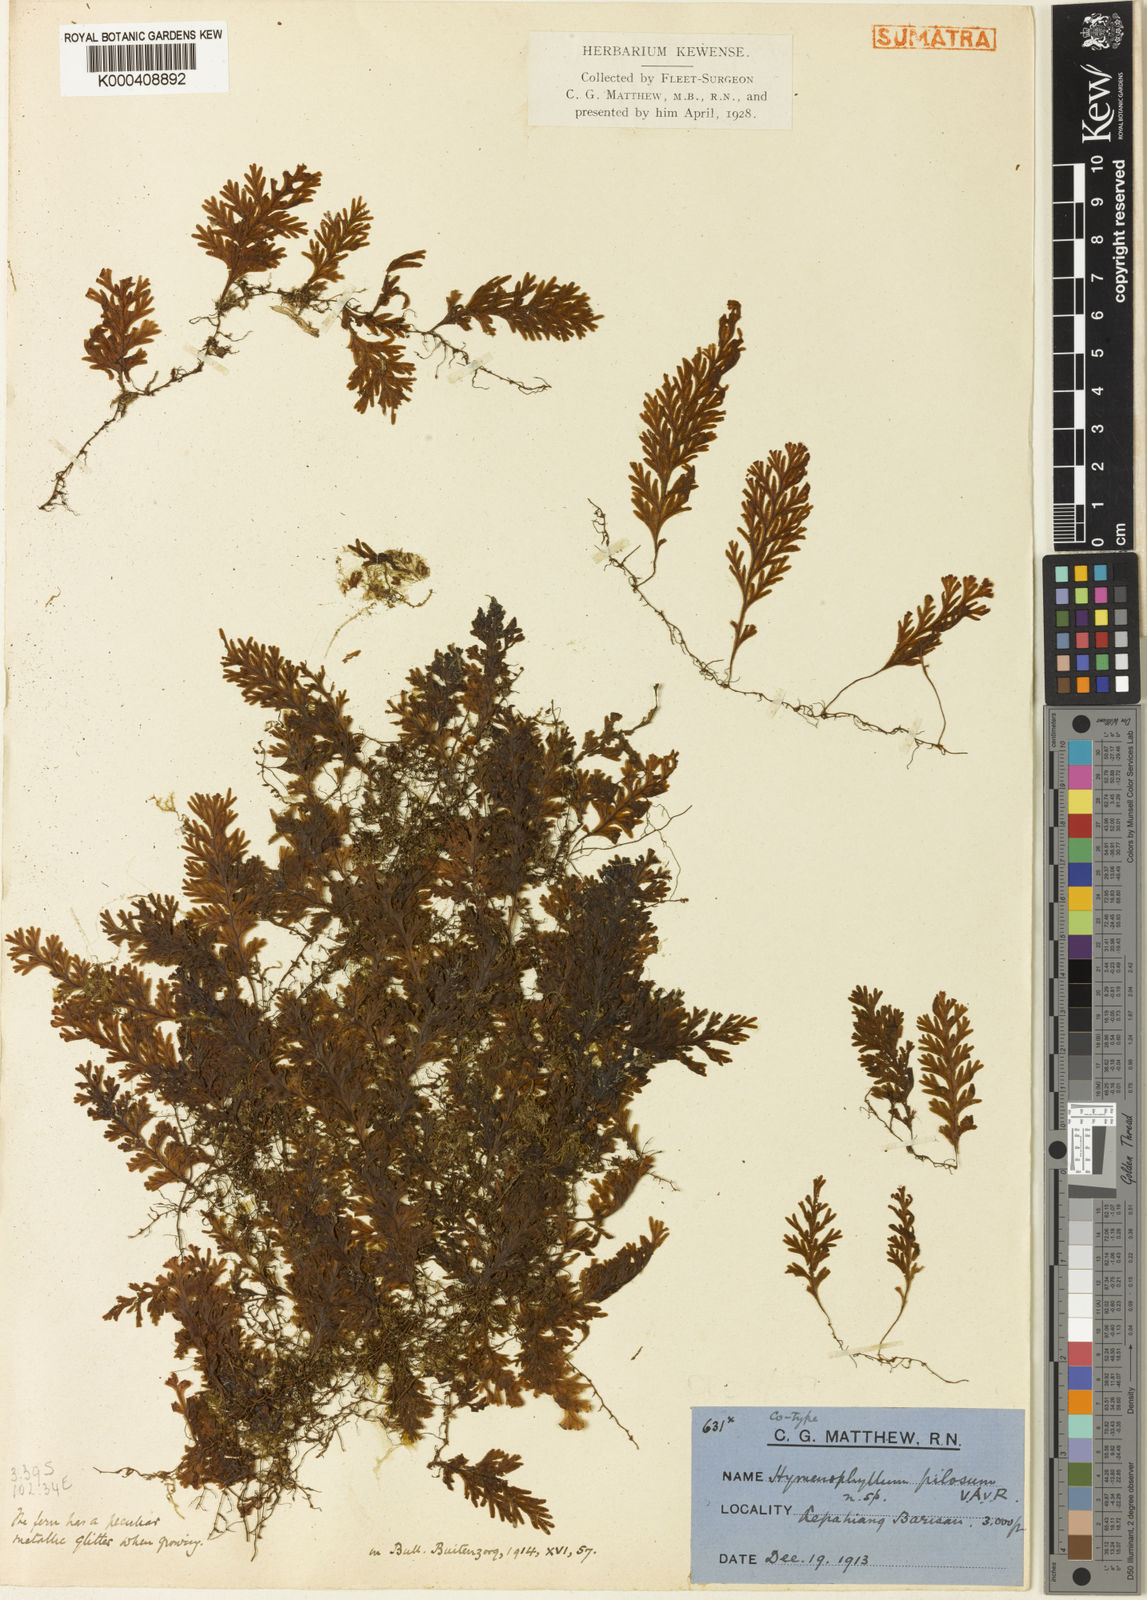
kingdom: Plantae
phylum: Tracheophyta
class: Polypodiopsida
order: Hymenophyllales
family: Hymenophyllaceae
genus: Hymenophyllum
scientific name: Hymenophyllum pachydermicum
